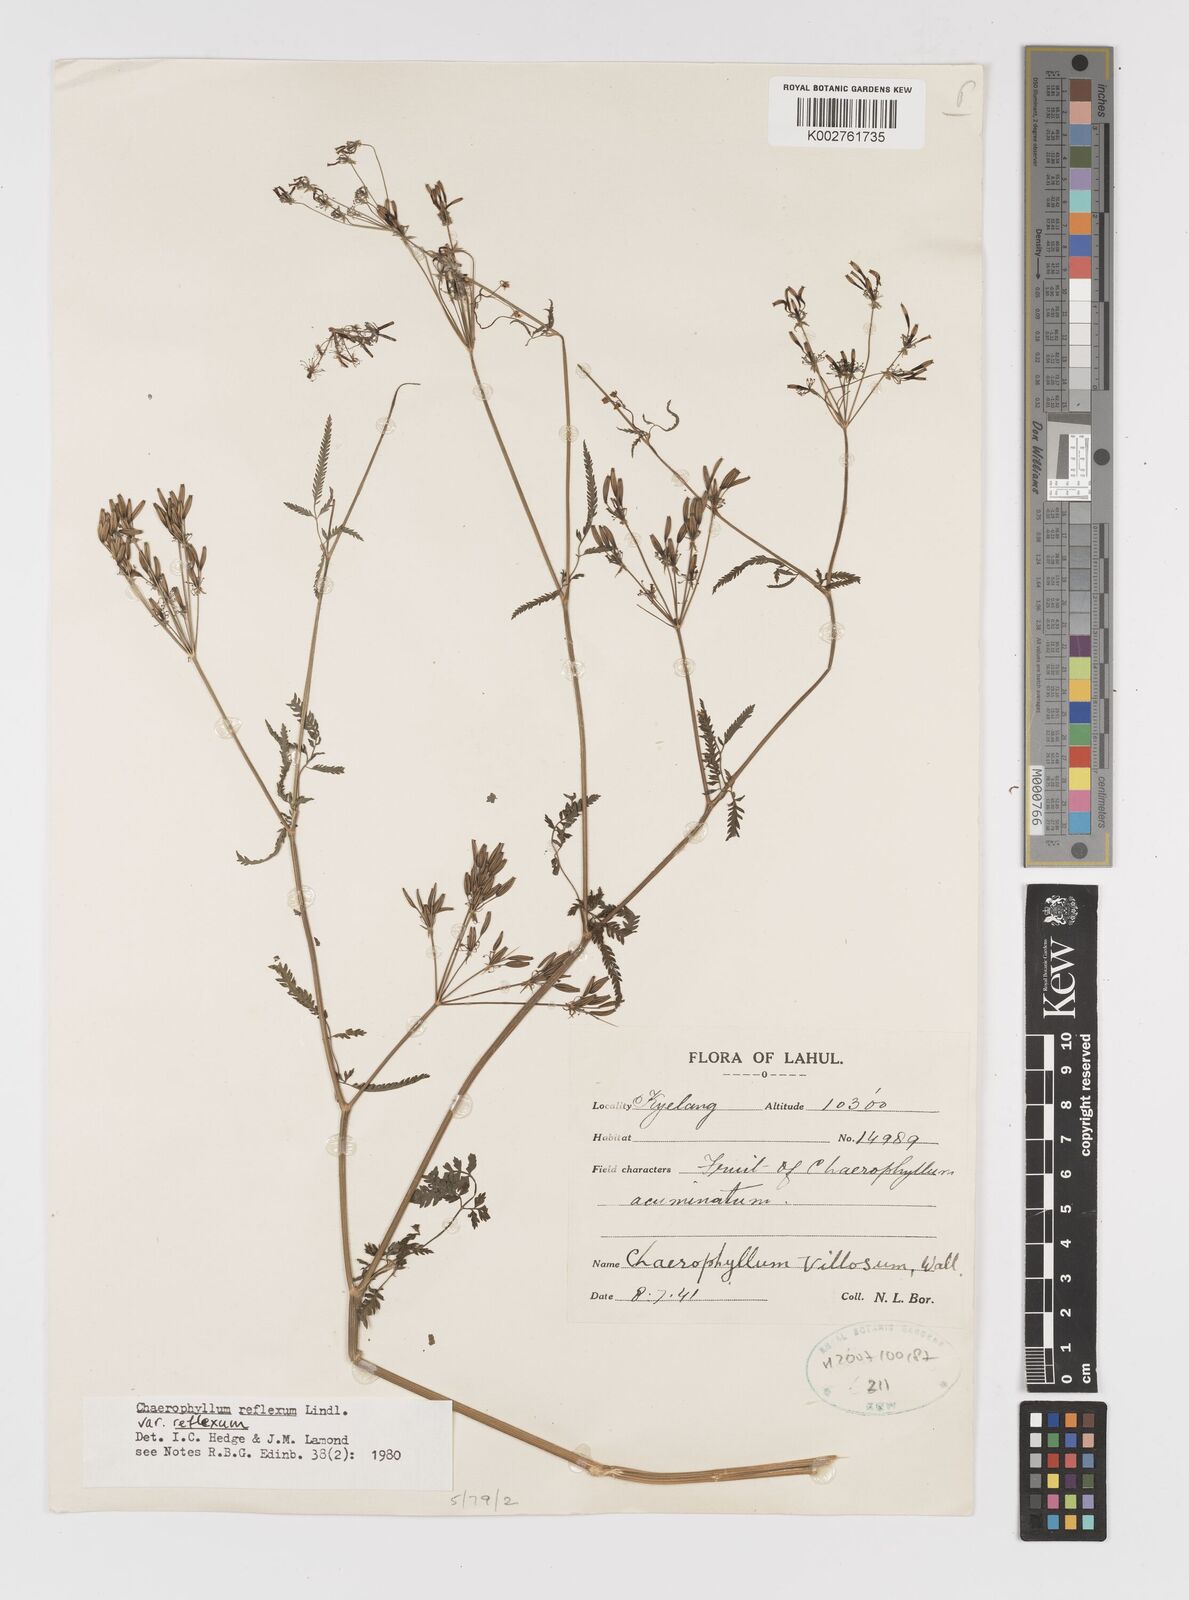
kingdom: Plantae
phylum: Tracheophyta
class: Magnoliopsida
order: Apiales
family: Apiaceae
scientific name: Apiaceae
